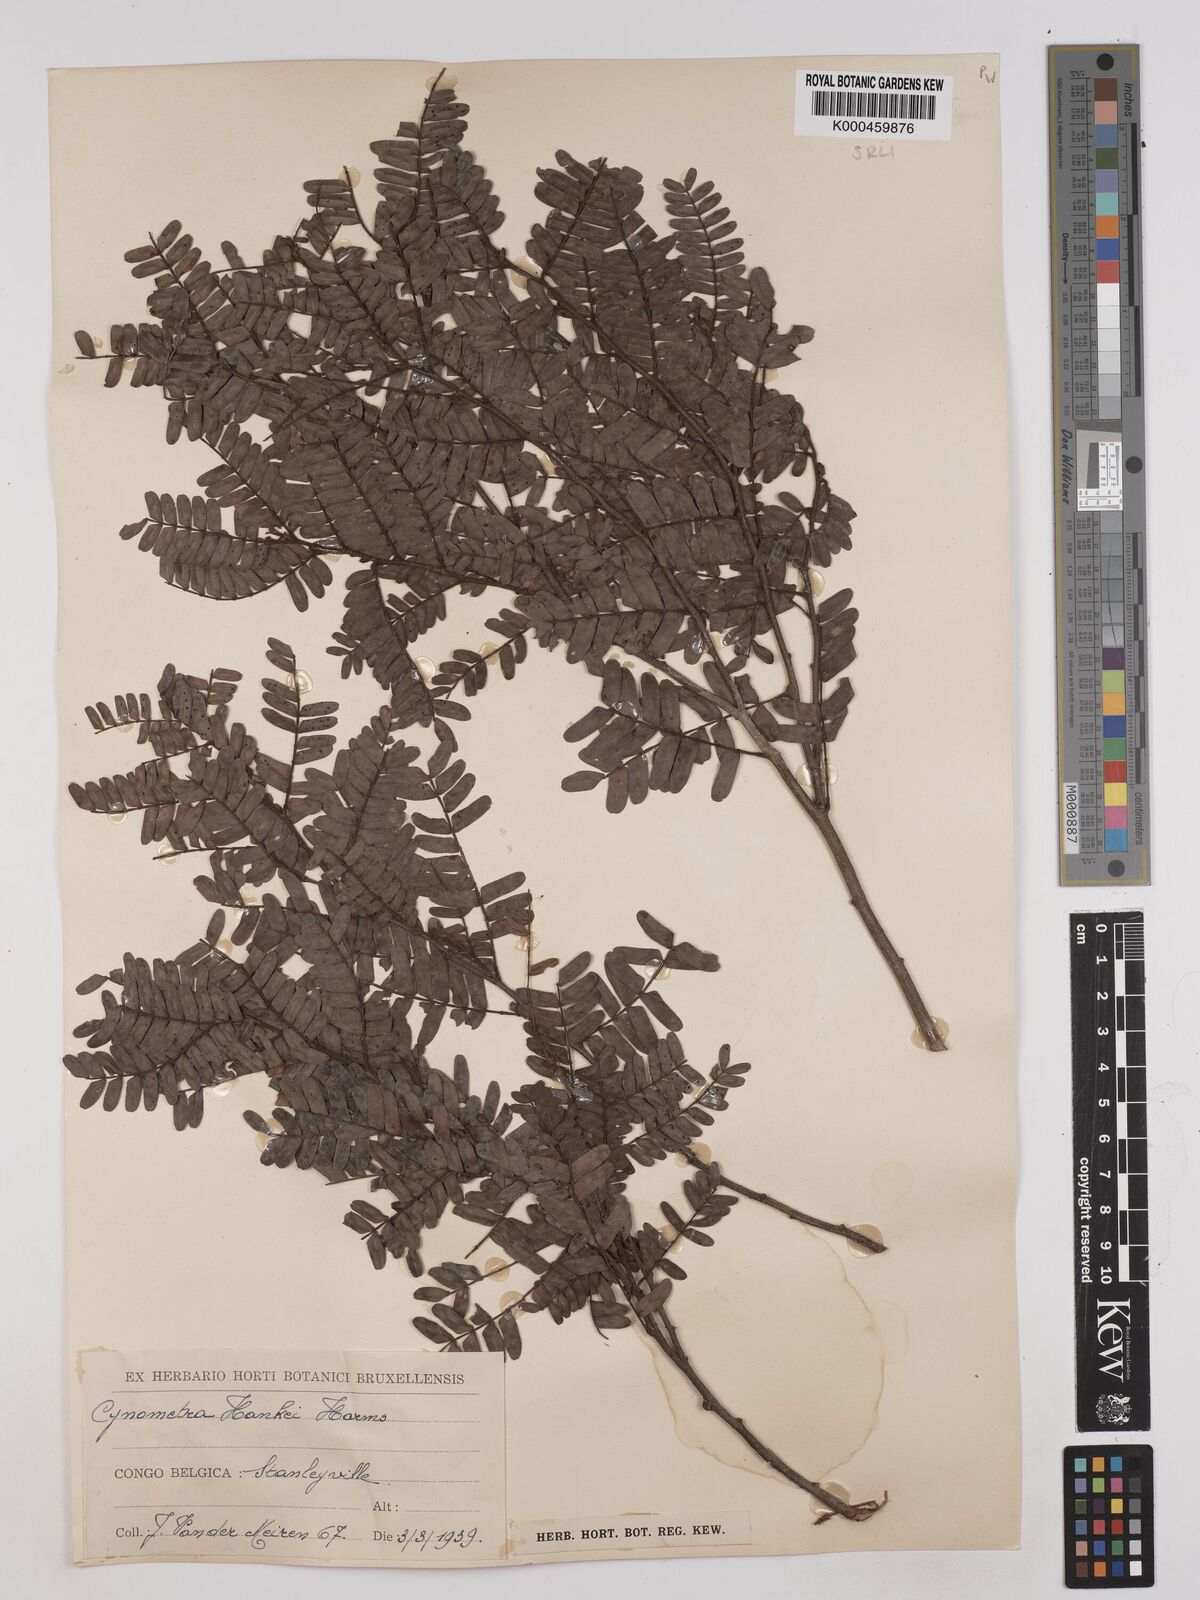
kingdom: Plantae
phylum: Tracheophyta
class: Magnoliopsida
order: Fabales
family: Fabaceae
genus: Cynometra
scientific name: Cynometra hankei
